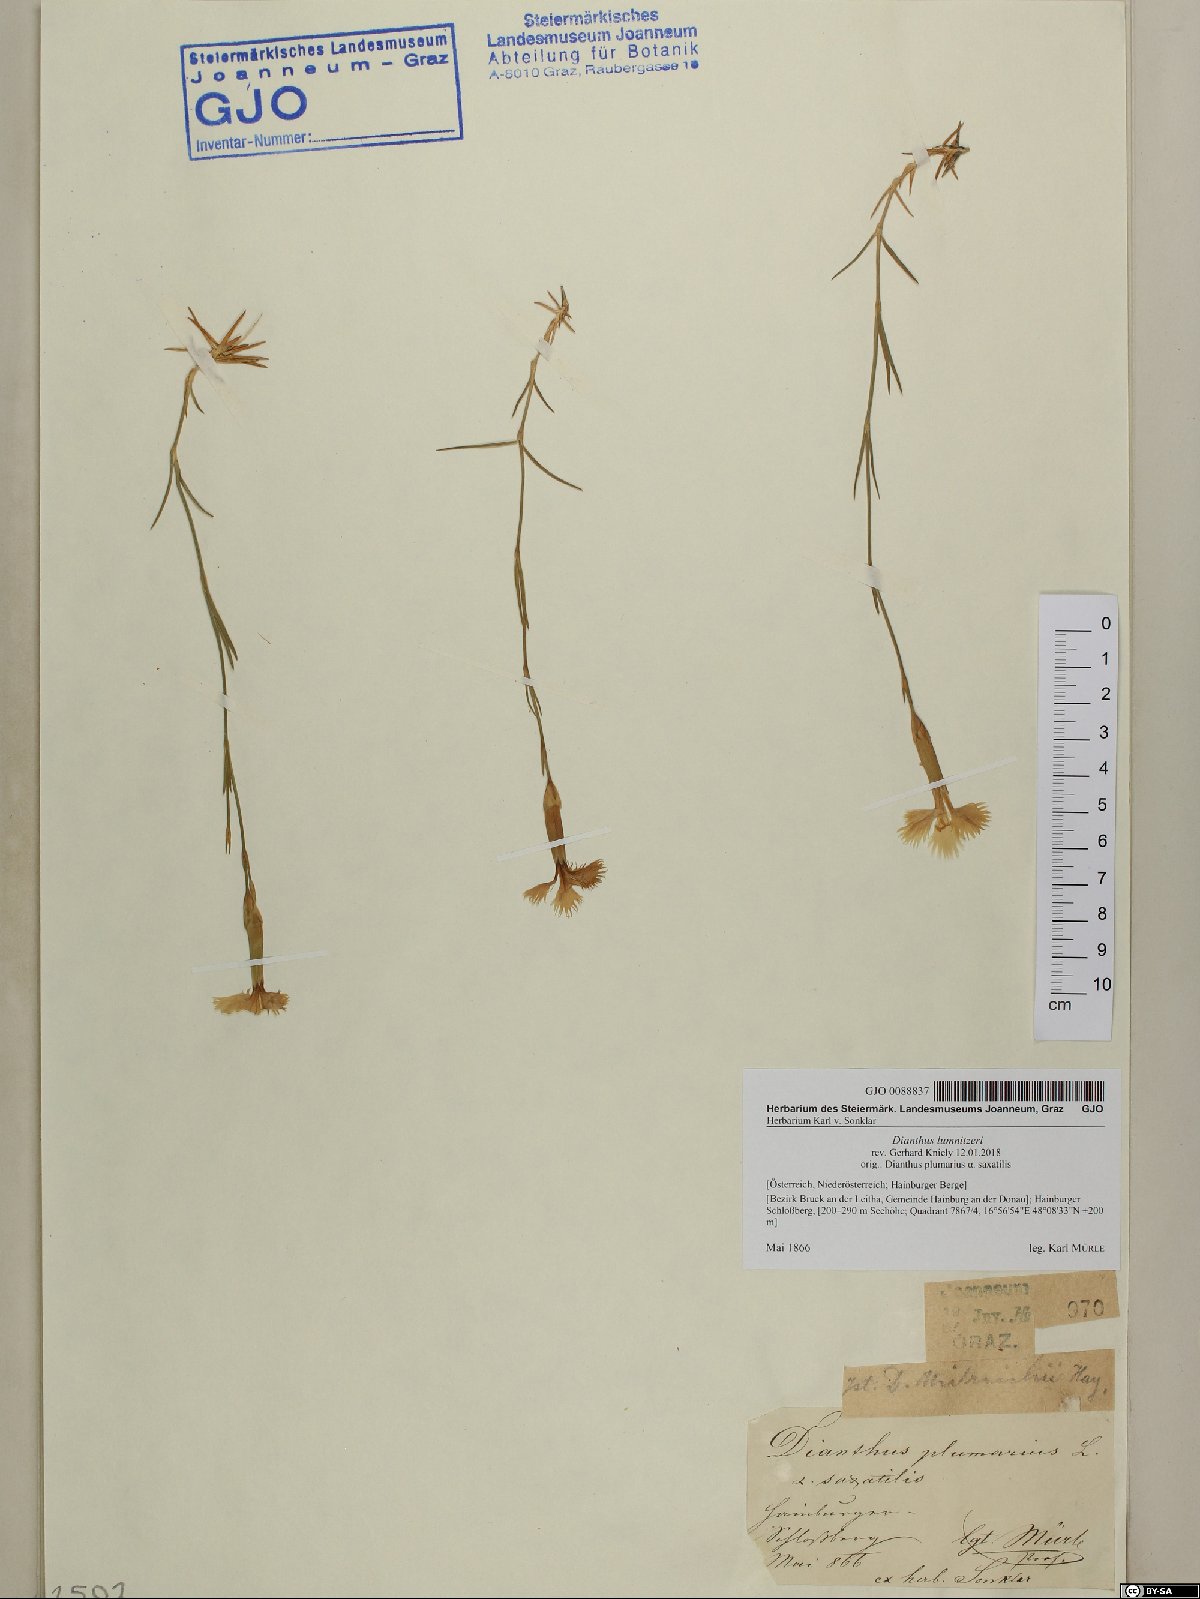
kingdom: Plantae
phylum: Tracheophyta
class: Magnoliopsida
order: Caryophyllales
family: Caryophyllaceae
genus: Dianthus
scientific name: Dianthus praecox
